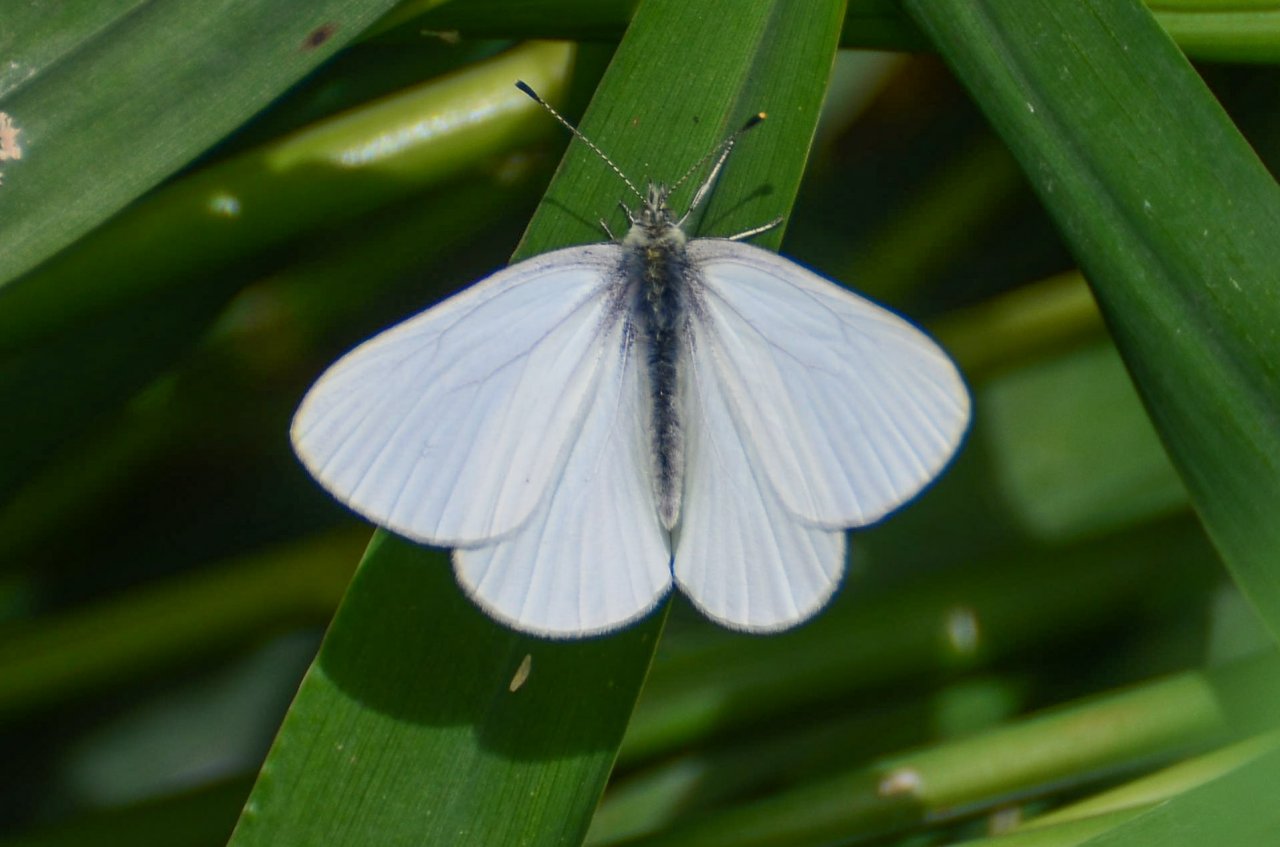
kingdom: Animalia
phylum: Arthropoda
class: Insecta
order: Lepidoptera
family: Pieridae
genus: Pieris
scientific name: Pieris marginalis
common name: Margined White
